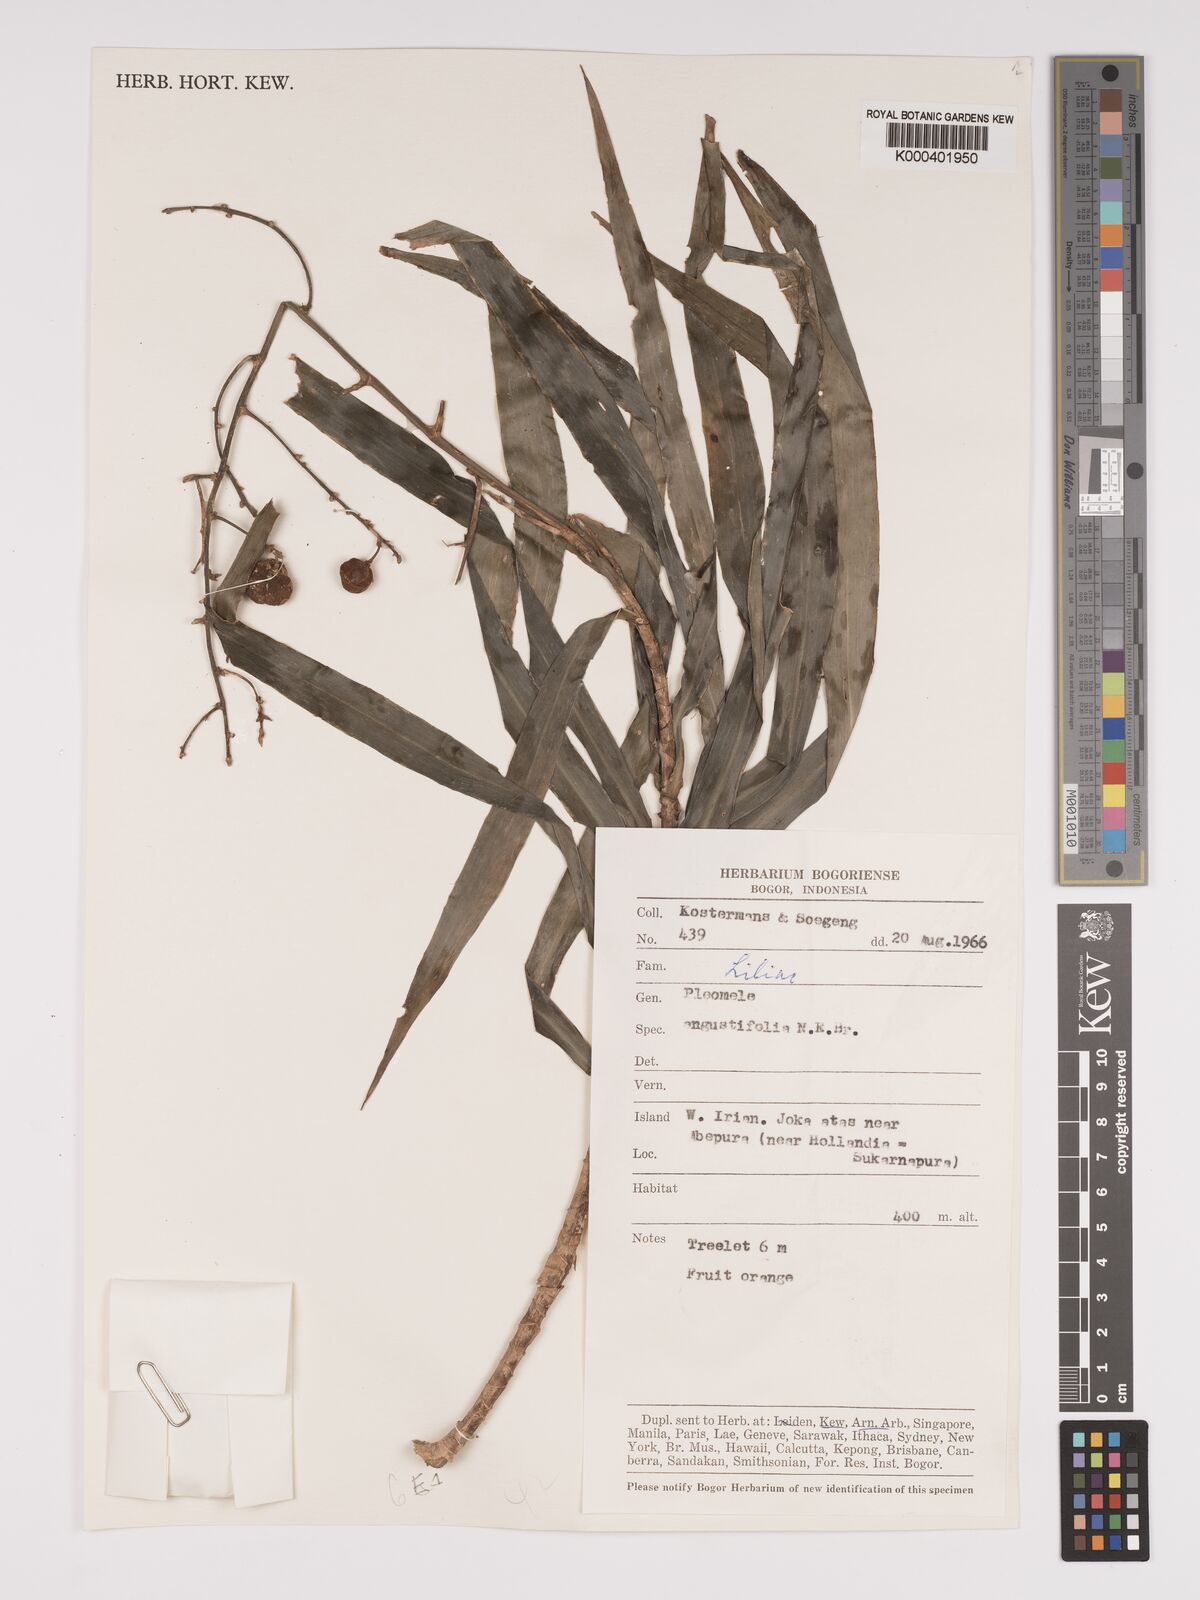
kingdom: Plantae
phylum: Tracheophyta
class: Liliopsida
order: Asparagales
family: Asparagaceae
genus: Dracaena
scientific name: Dracaena angustifolia
